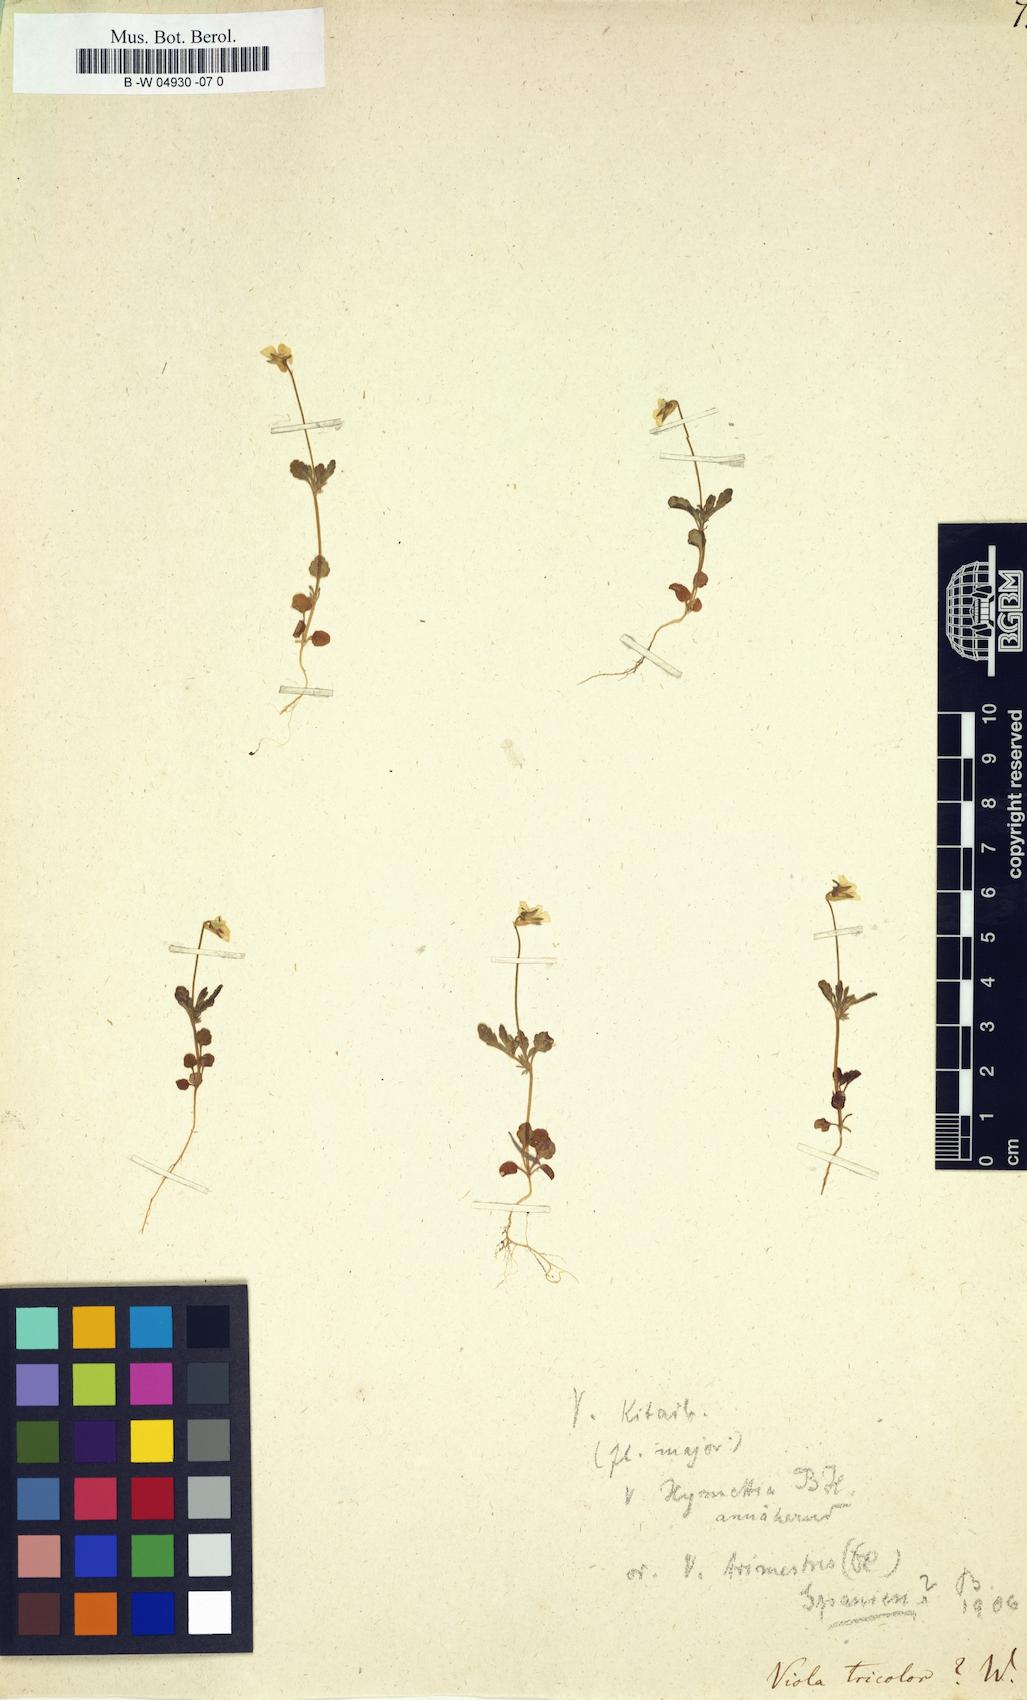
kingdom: Plantae
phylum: Tracheophyta
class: Magnoliopsida
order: Malpighiales
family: Violaceae
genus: Viola
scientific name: Viola tricolor
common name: Pansy
